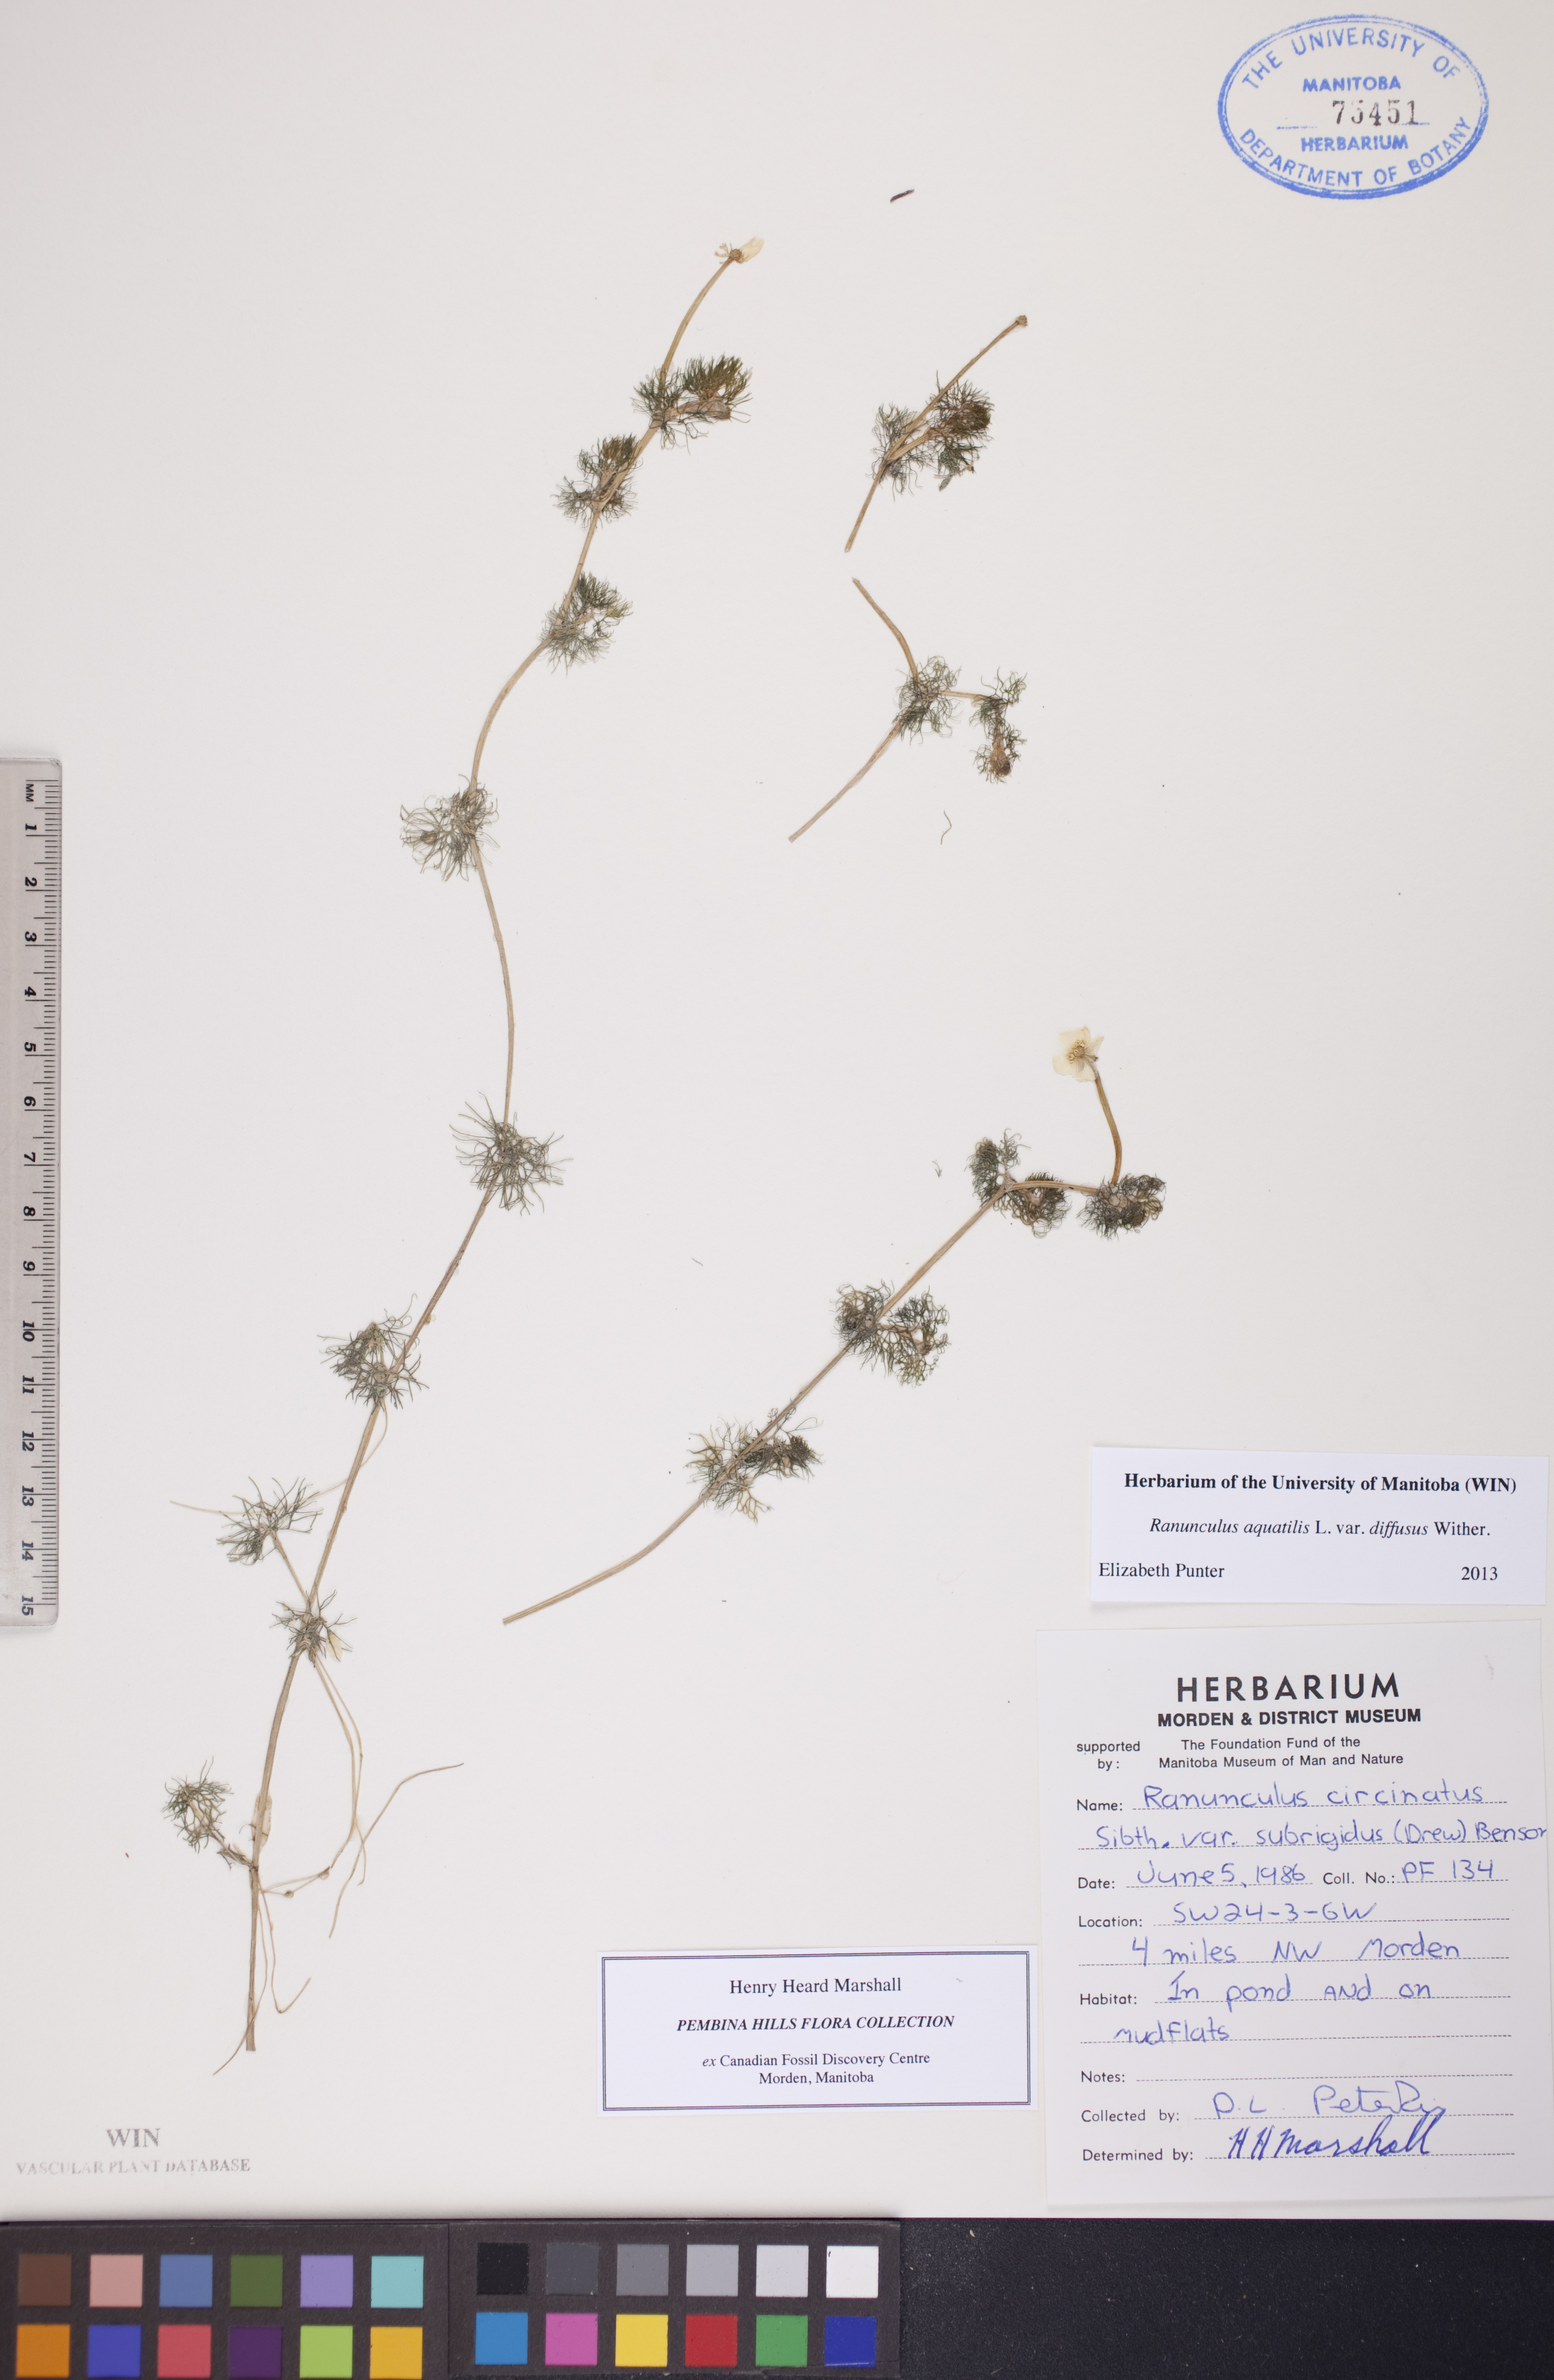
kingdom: Plantae
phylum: Tracheophyta
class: Magnoliopsida
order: Ranunculales
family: Ranunculaceae
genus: Ranunculus
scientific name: Ranunculus trichophyllus
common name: Thread-leaved water-crowfoot
